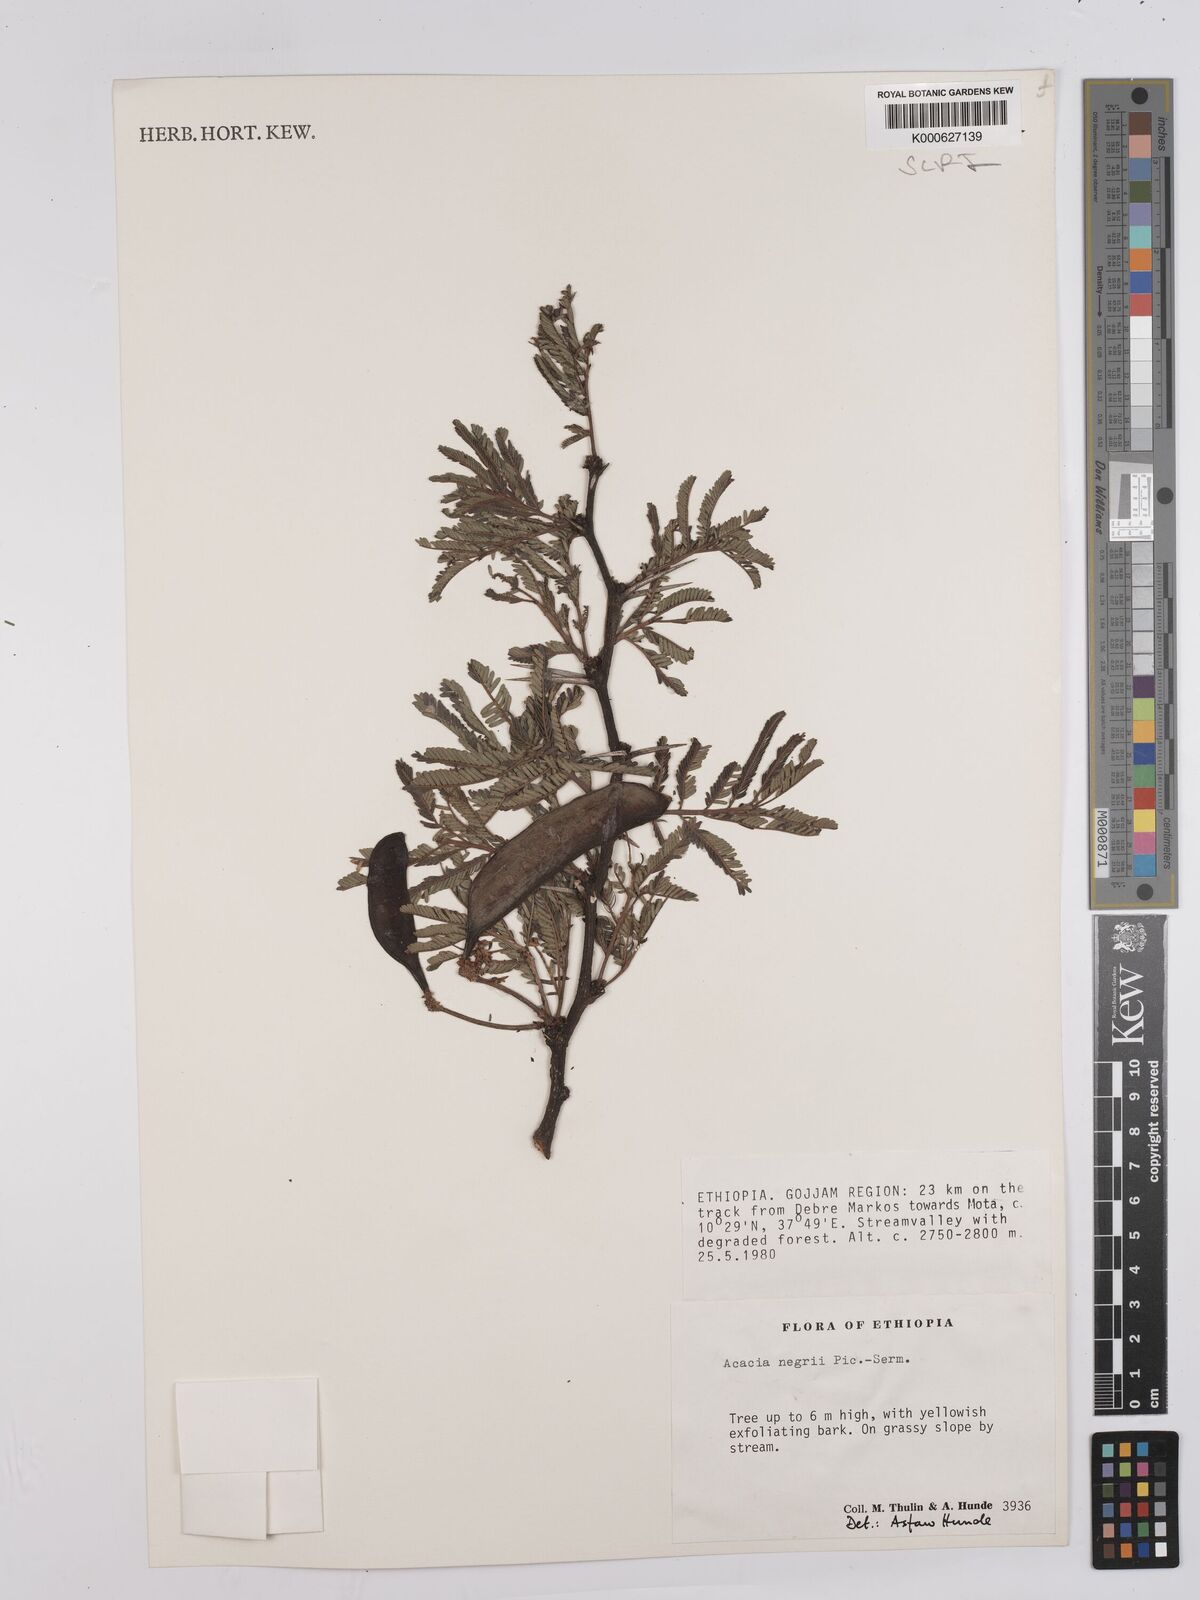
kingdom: Plantae
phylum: Tracheophyta
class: Magnoliopsida
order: Fabales
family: Fabaceae
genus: Vachellia
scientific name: Vachellia negrii
